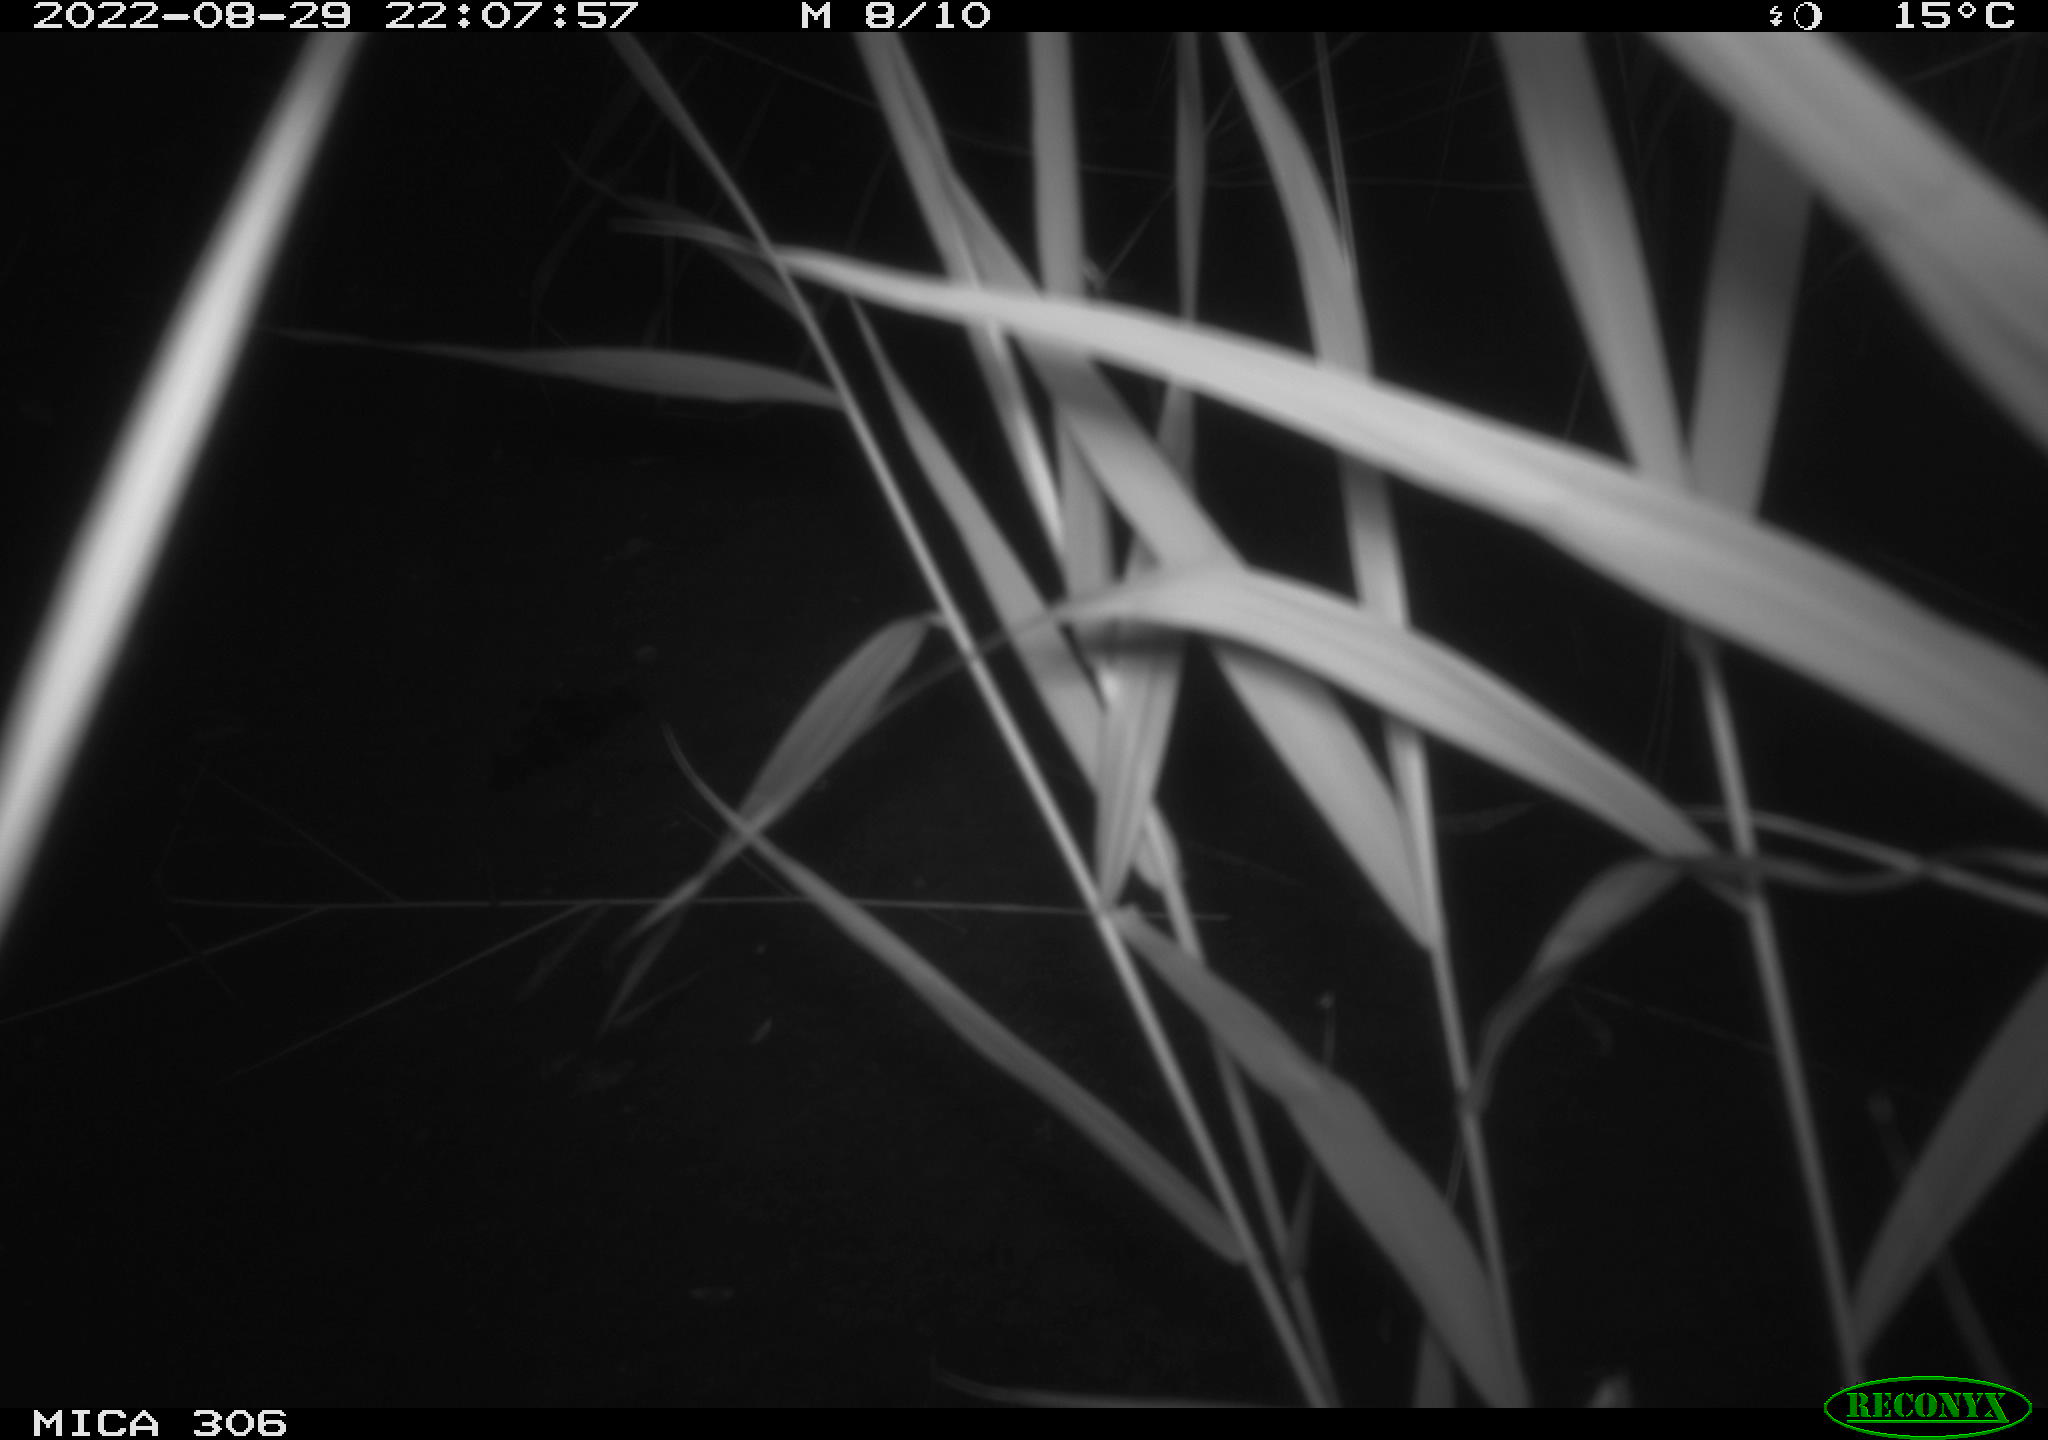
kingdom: Animalia
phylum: Chordata
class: Mammalia
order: Rodentia
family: Muridae
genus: Rattus
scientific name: Rattus norvegicus
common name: Brown rat
